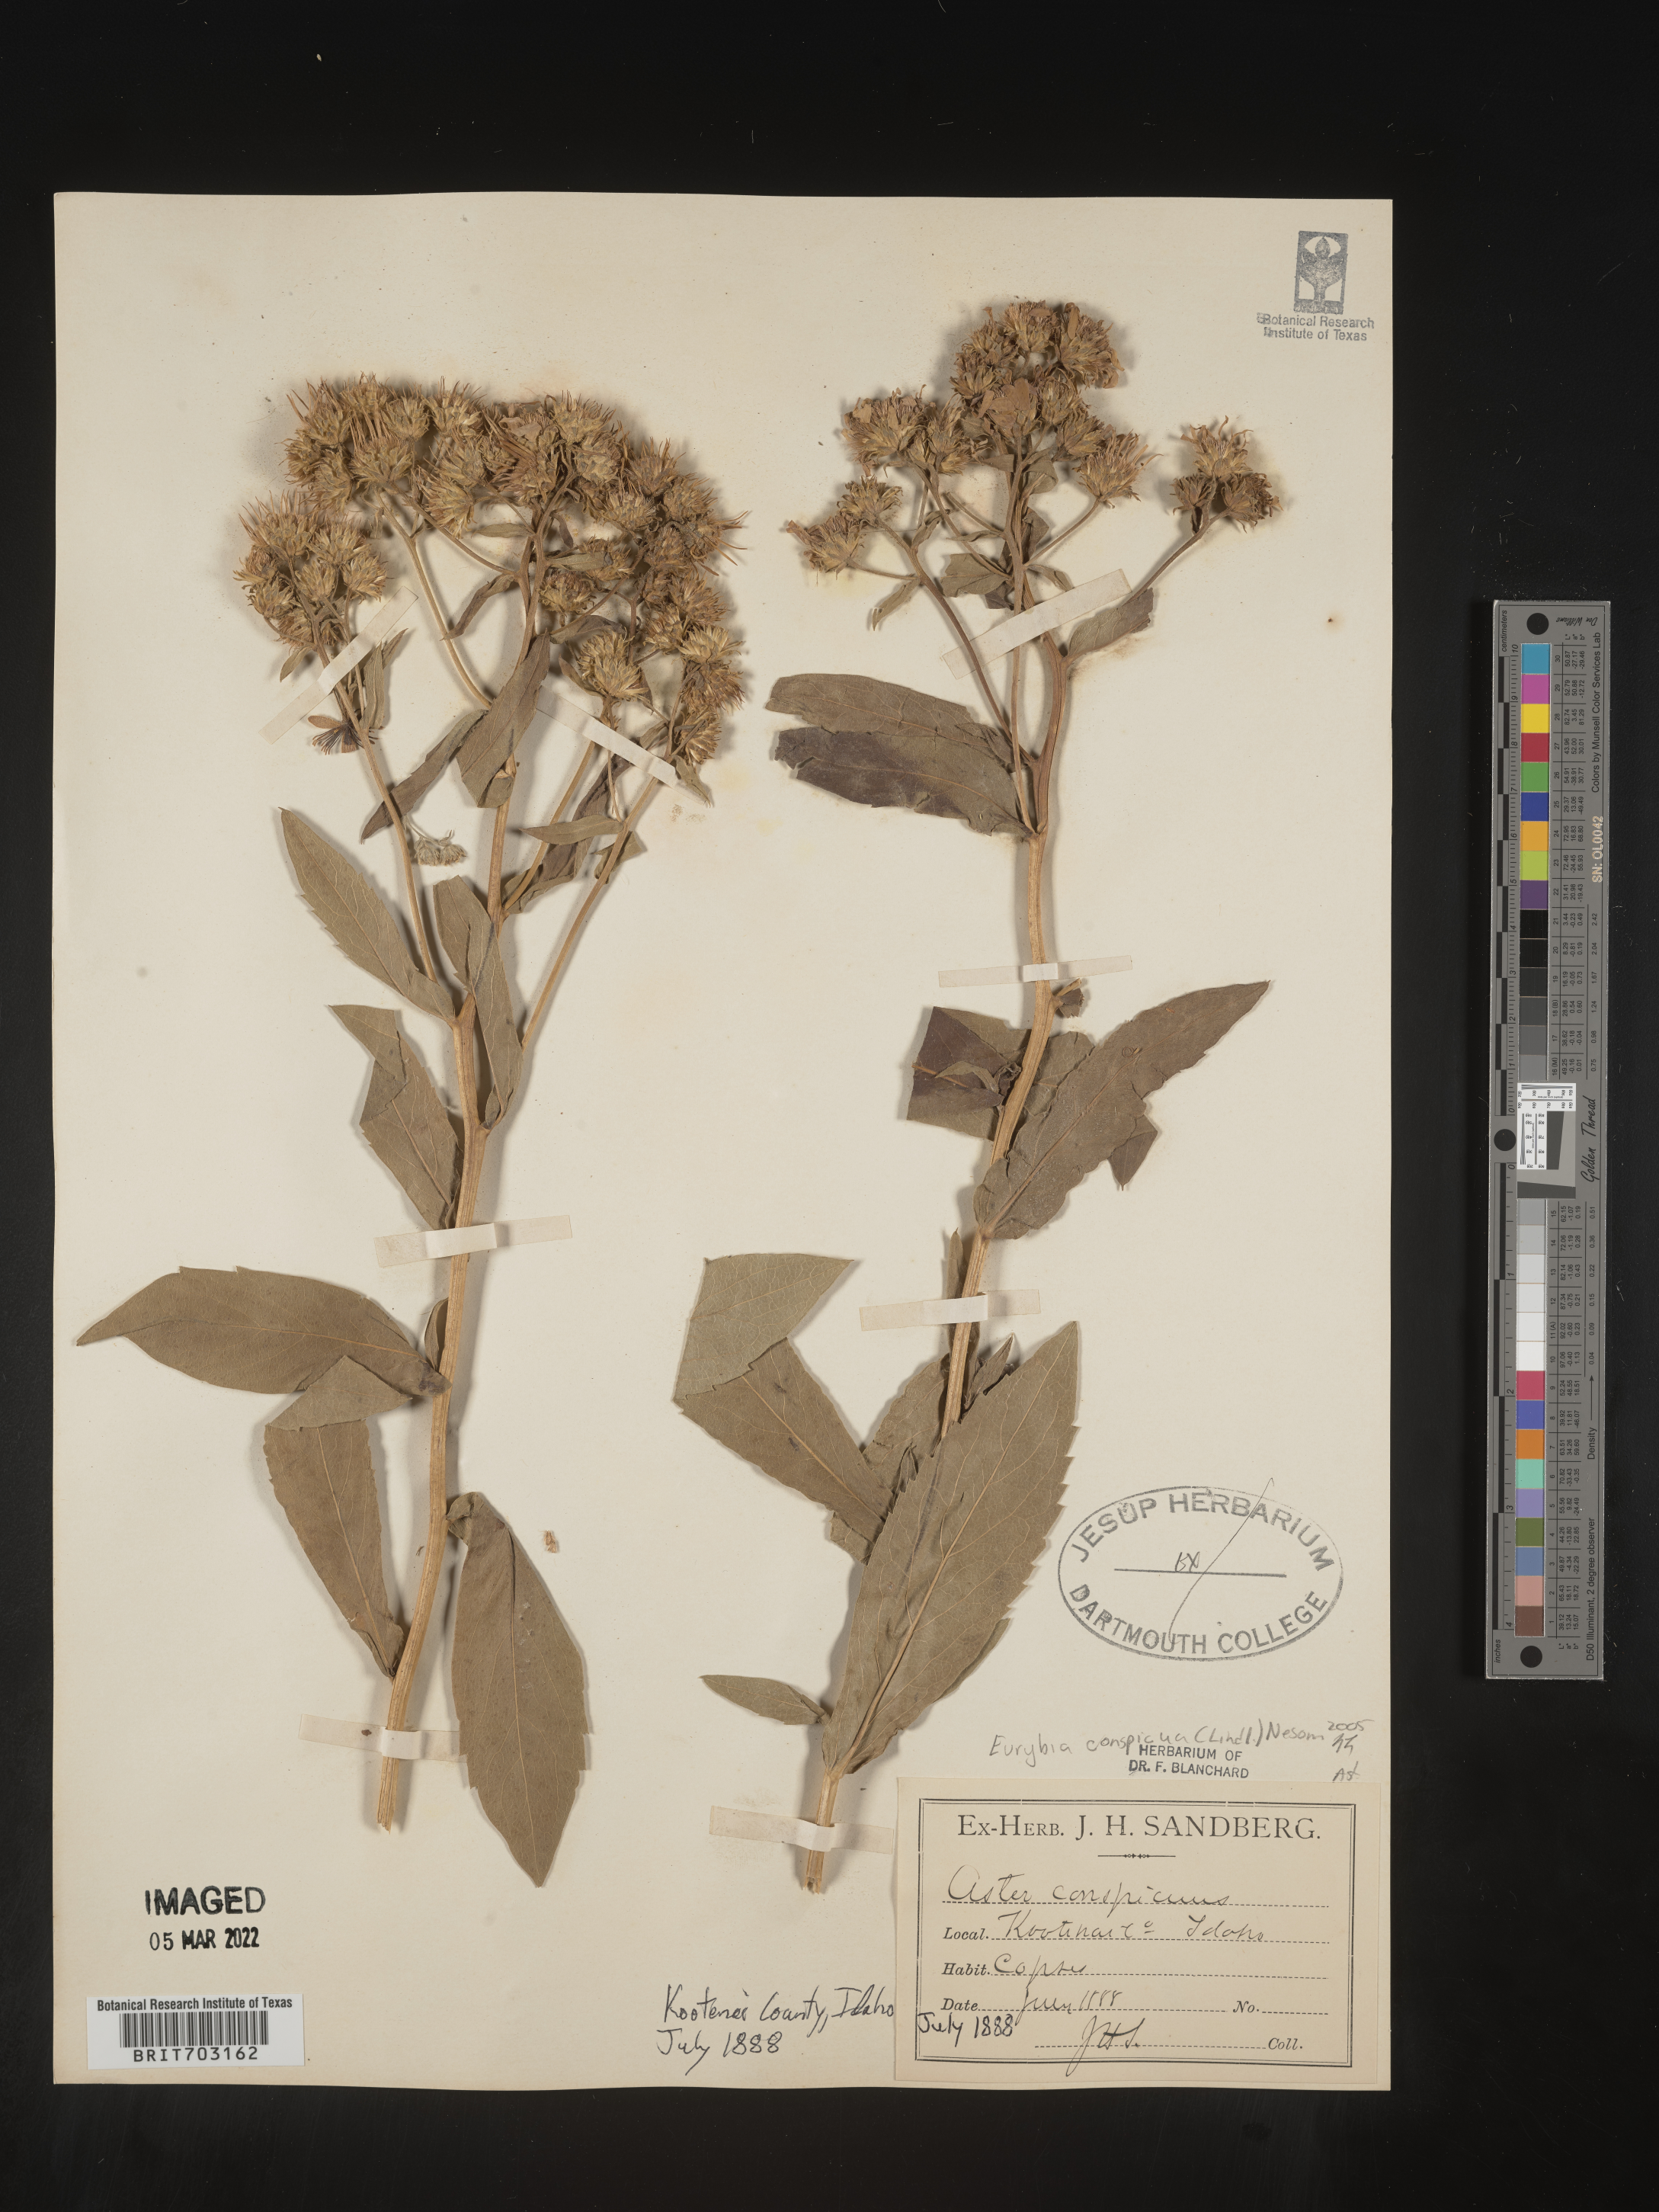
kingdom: Plantae
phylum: Tracheophyta
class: Magnoliopsida
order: Asterales
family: Asteraceae
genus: Eurybia
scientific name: Eurybia conspicua
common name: Showy aster
